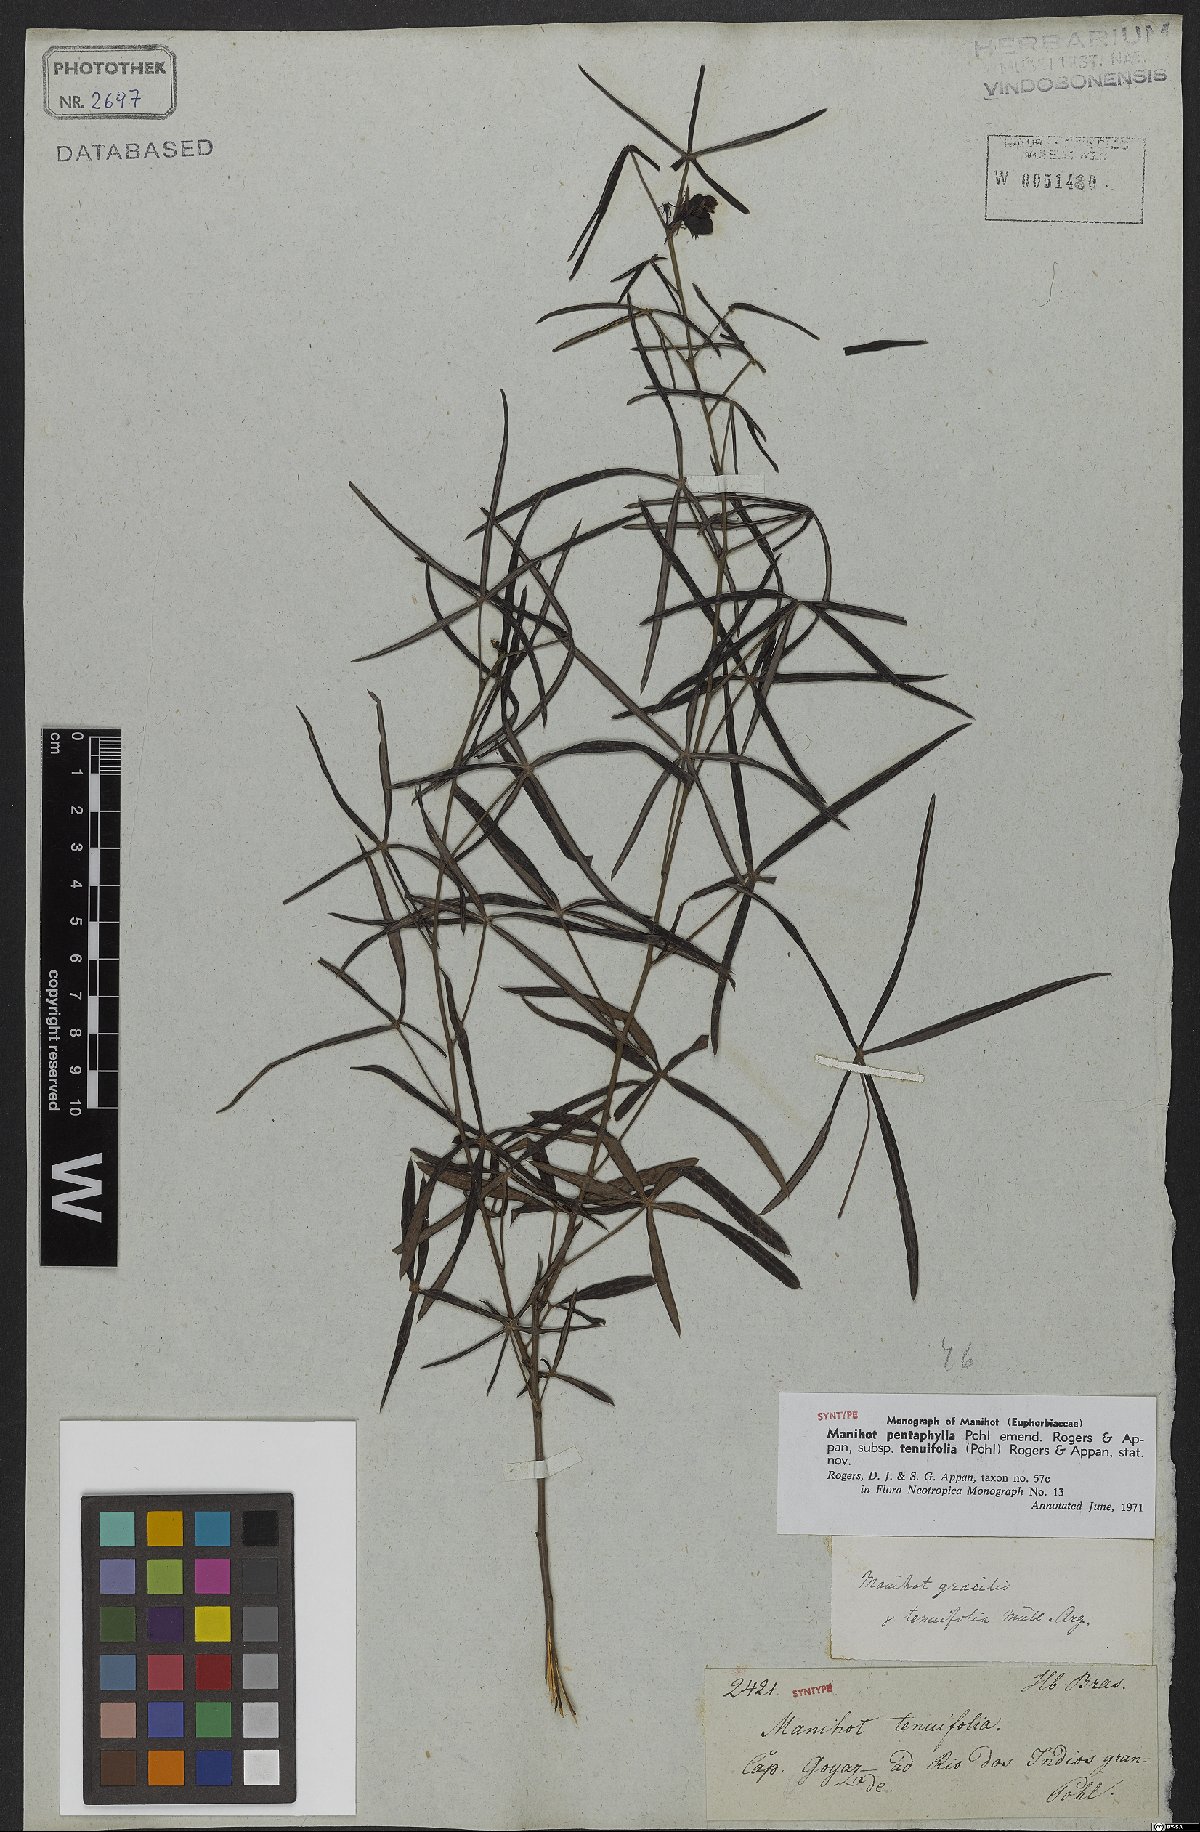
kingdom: Plantae
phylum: Tracheophyta
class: Magnoliopsida
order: Malpighiales
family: Euphorbiaceae
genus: Manihot
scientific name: Manihot pentaphylla
